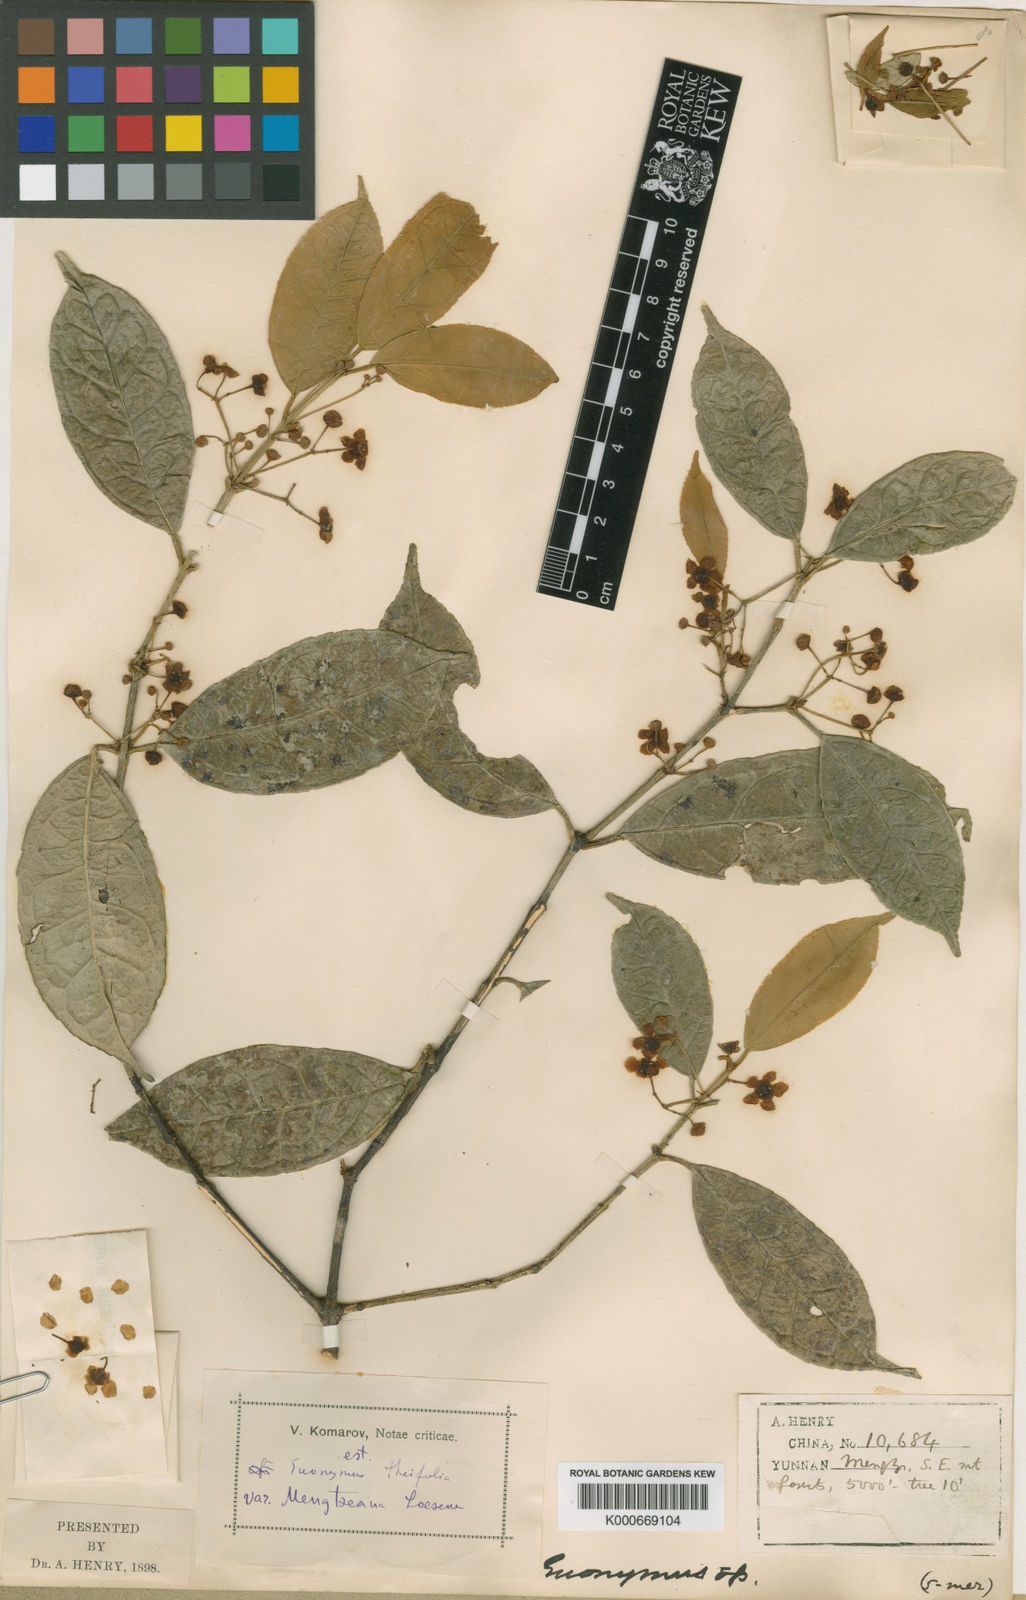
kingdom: Plantae
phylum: Tracheophyta
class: Magnoliopsida
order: Celastrales
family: Celastraceae
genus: Euonymus
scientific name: Euonymus balansae
